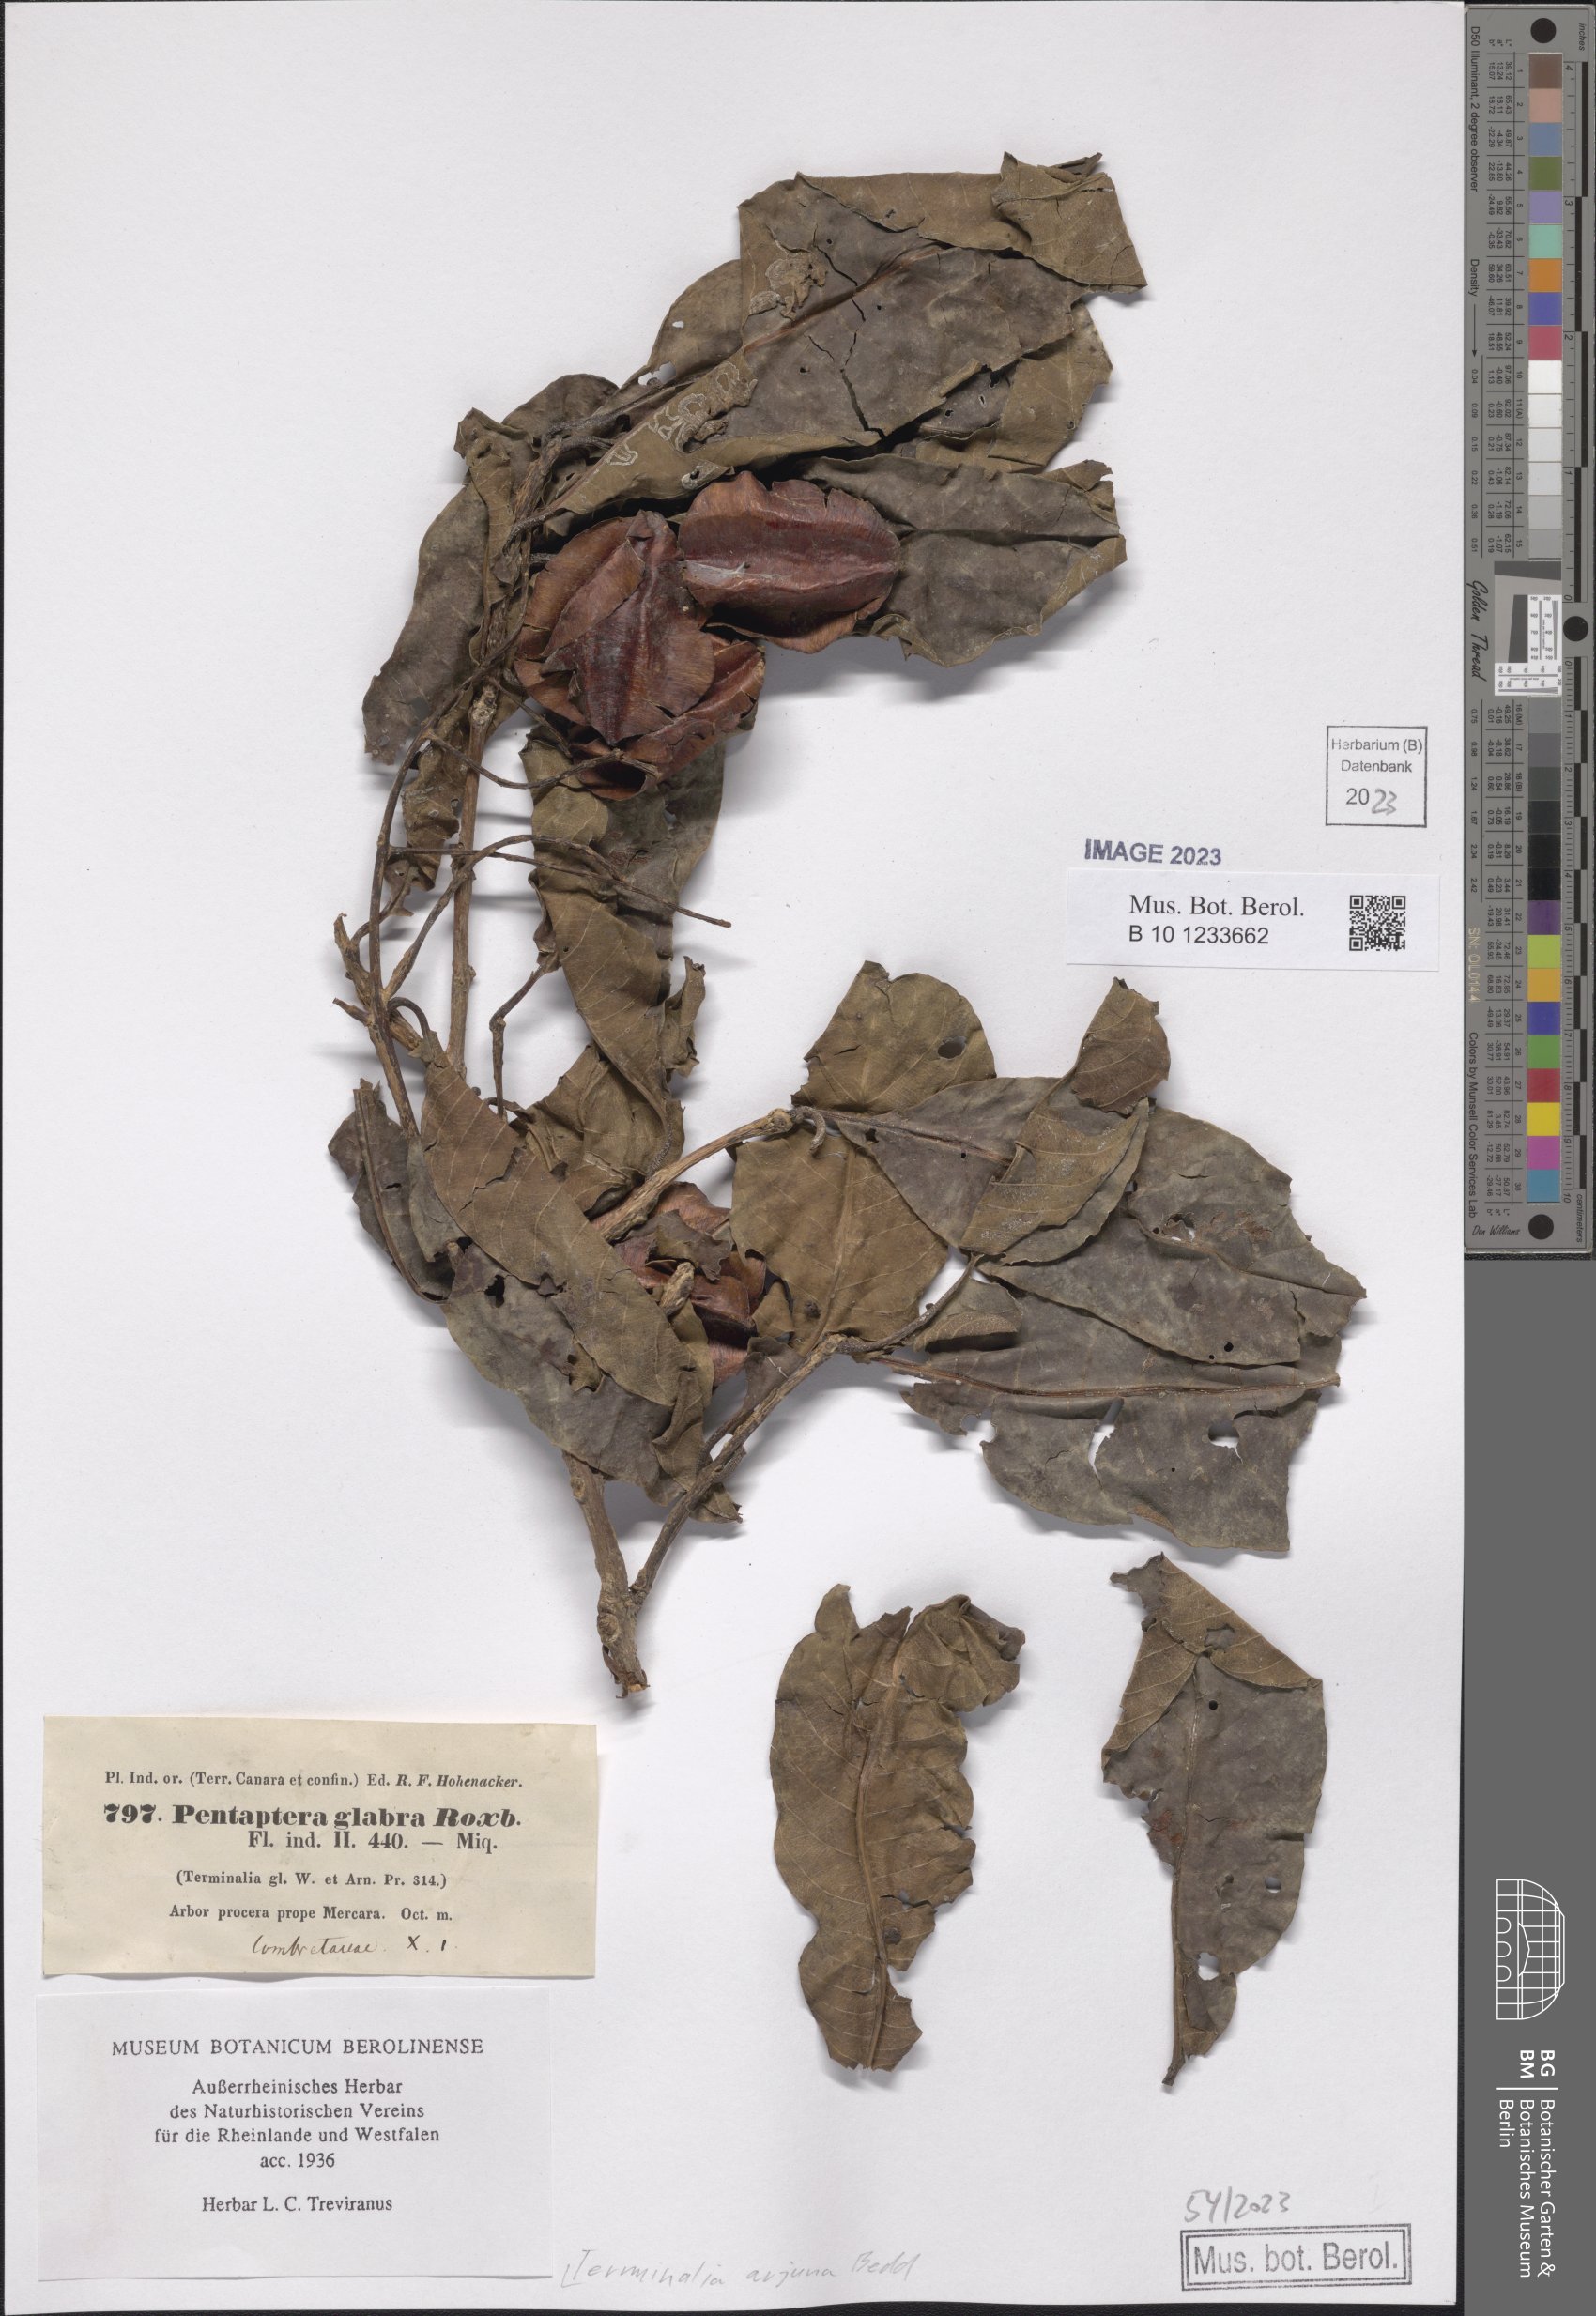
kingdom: Plantae
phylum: Tracheophyta
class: Magnoliopsida
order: Myrtales
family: Combretaceae
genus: Terminalia
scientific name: Terminalia arjuna
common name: Arjun
